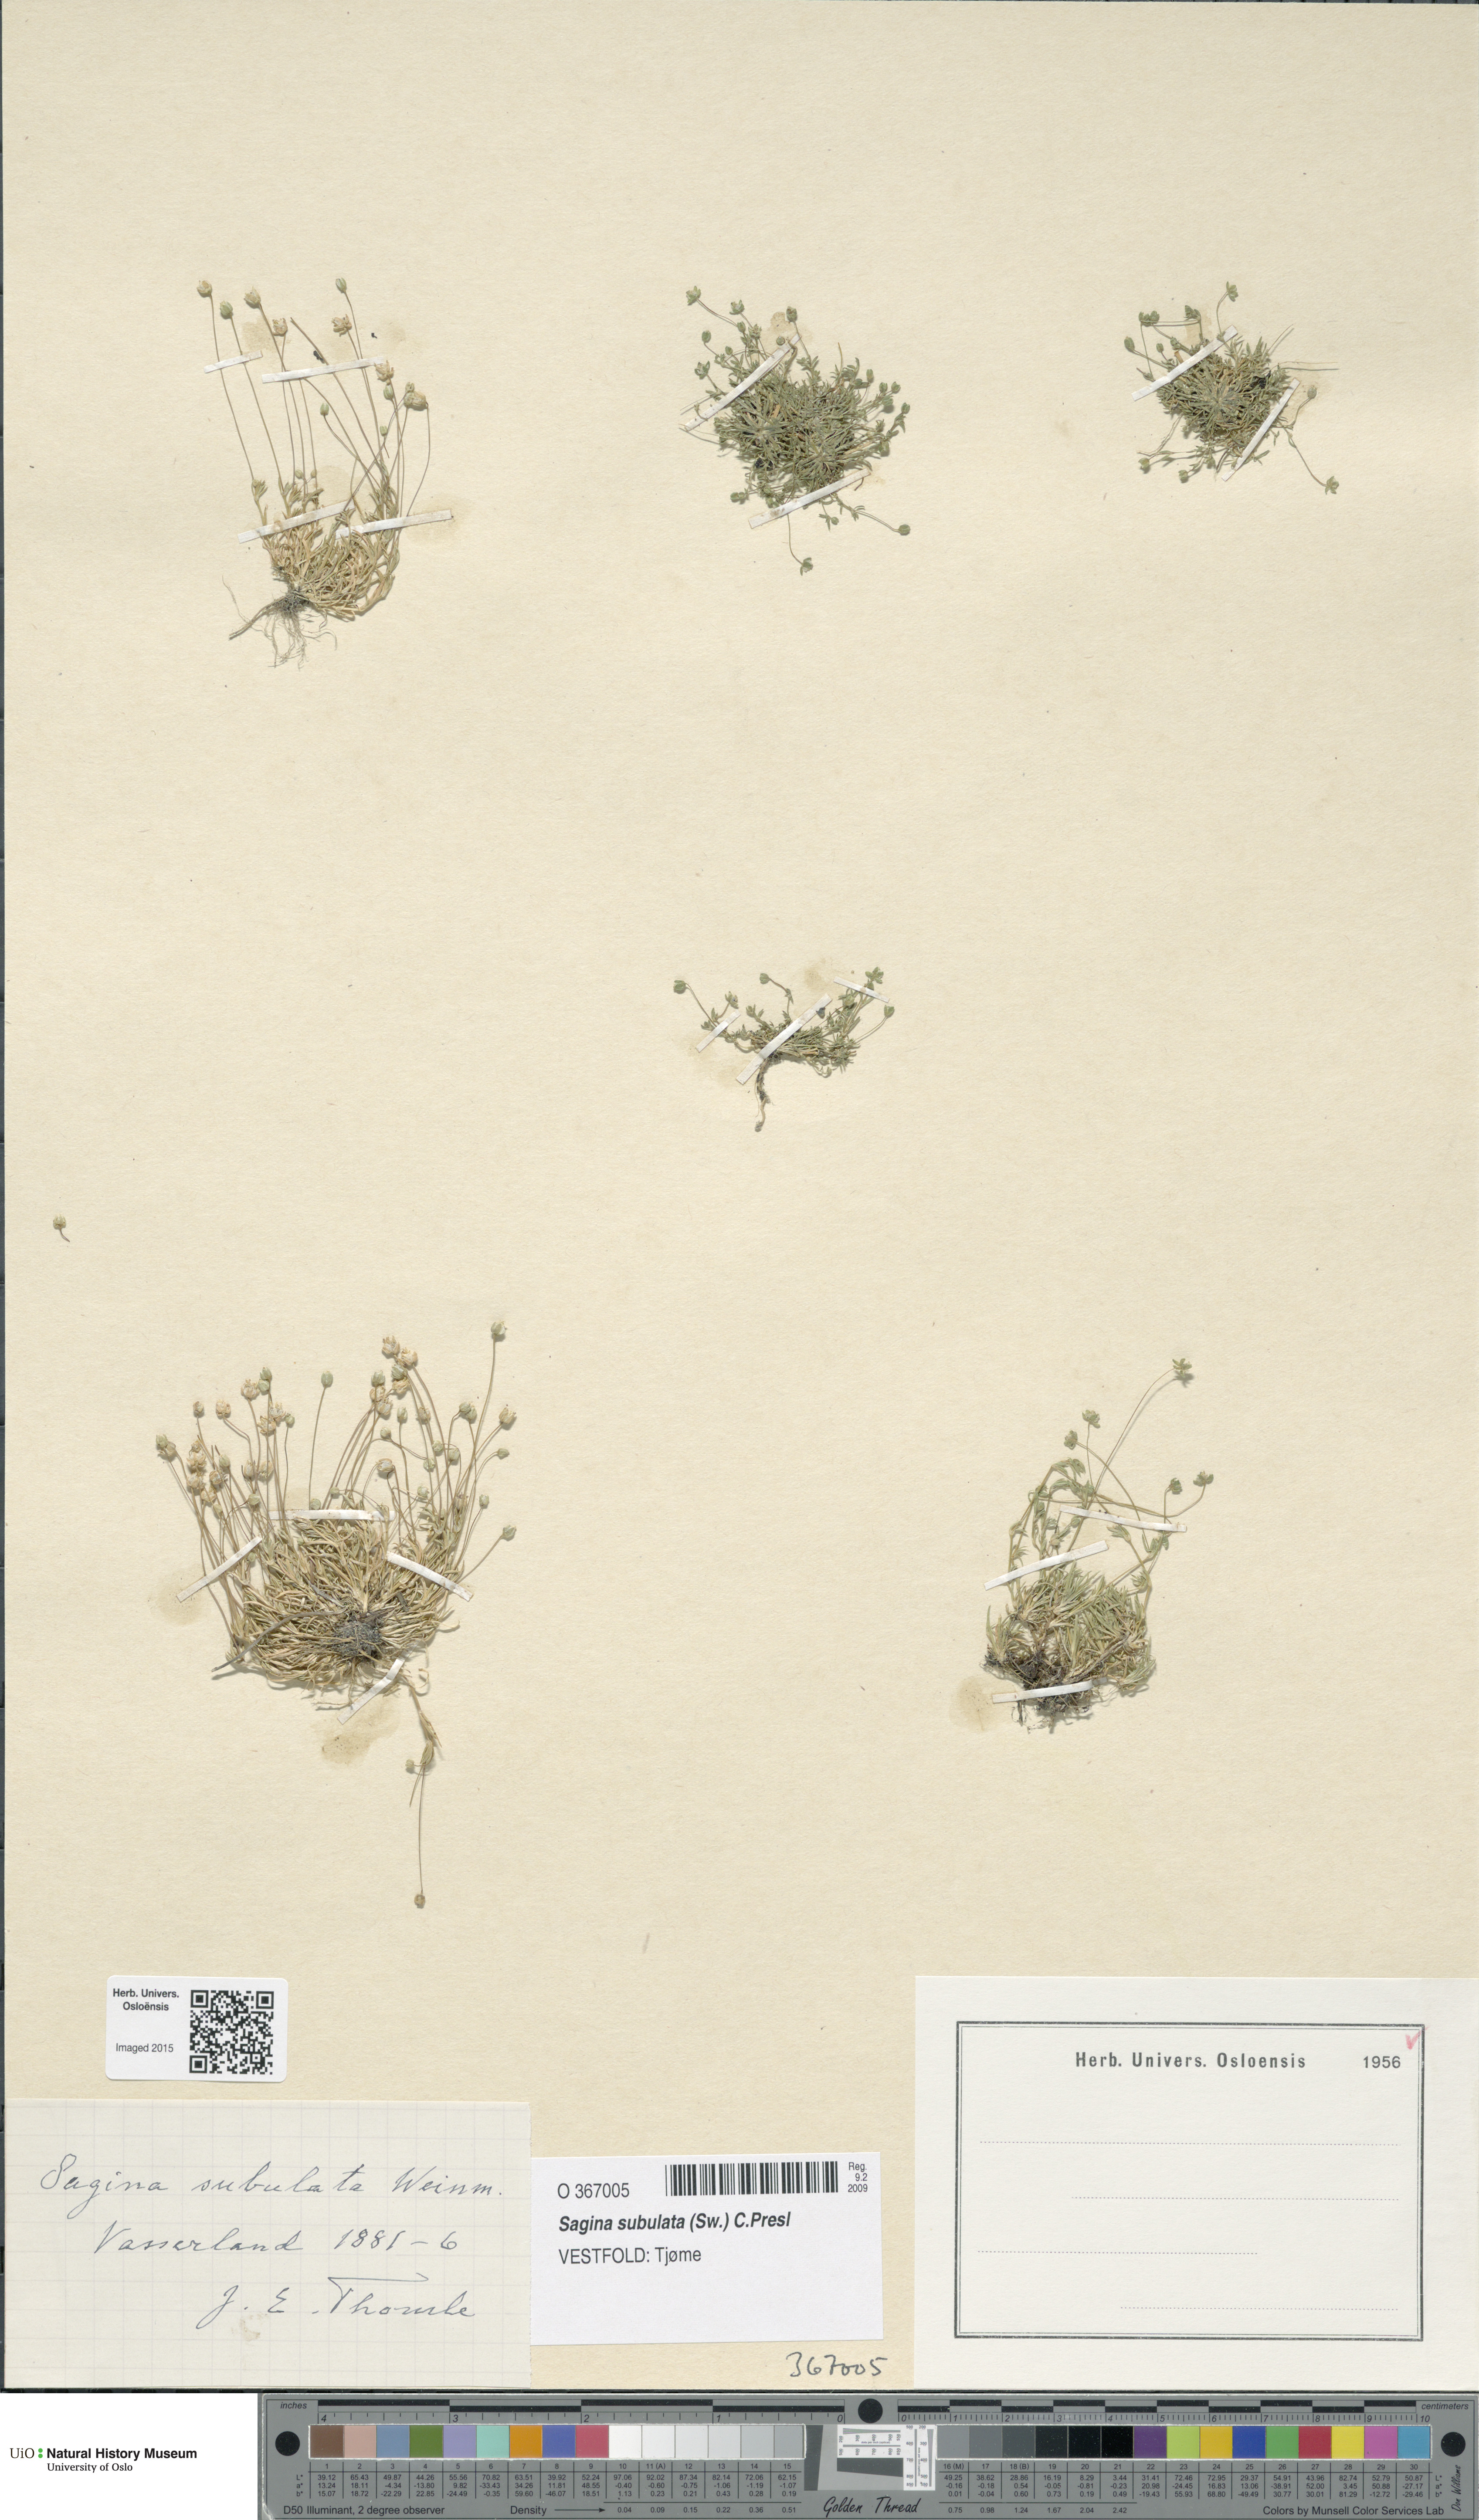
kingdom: Plantae
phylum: Tracheophyta
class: Magnoliopsida
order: Caryophyllales
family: Caryophyllaceae
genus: Sagina
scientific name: Sagina alexandrae
